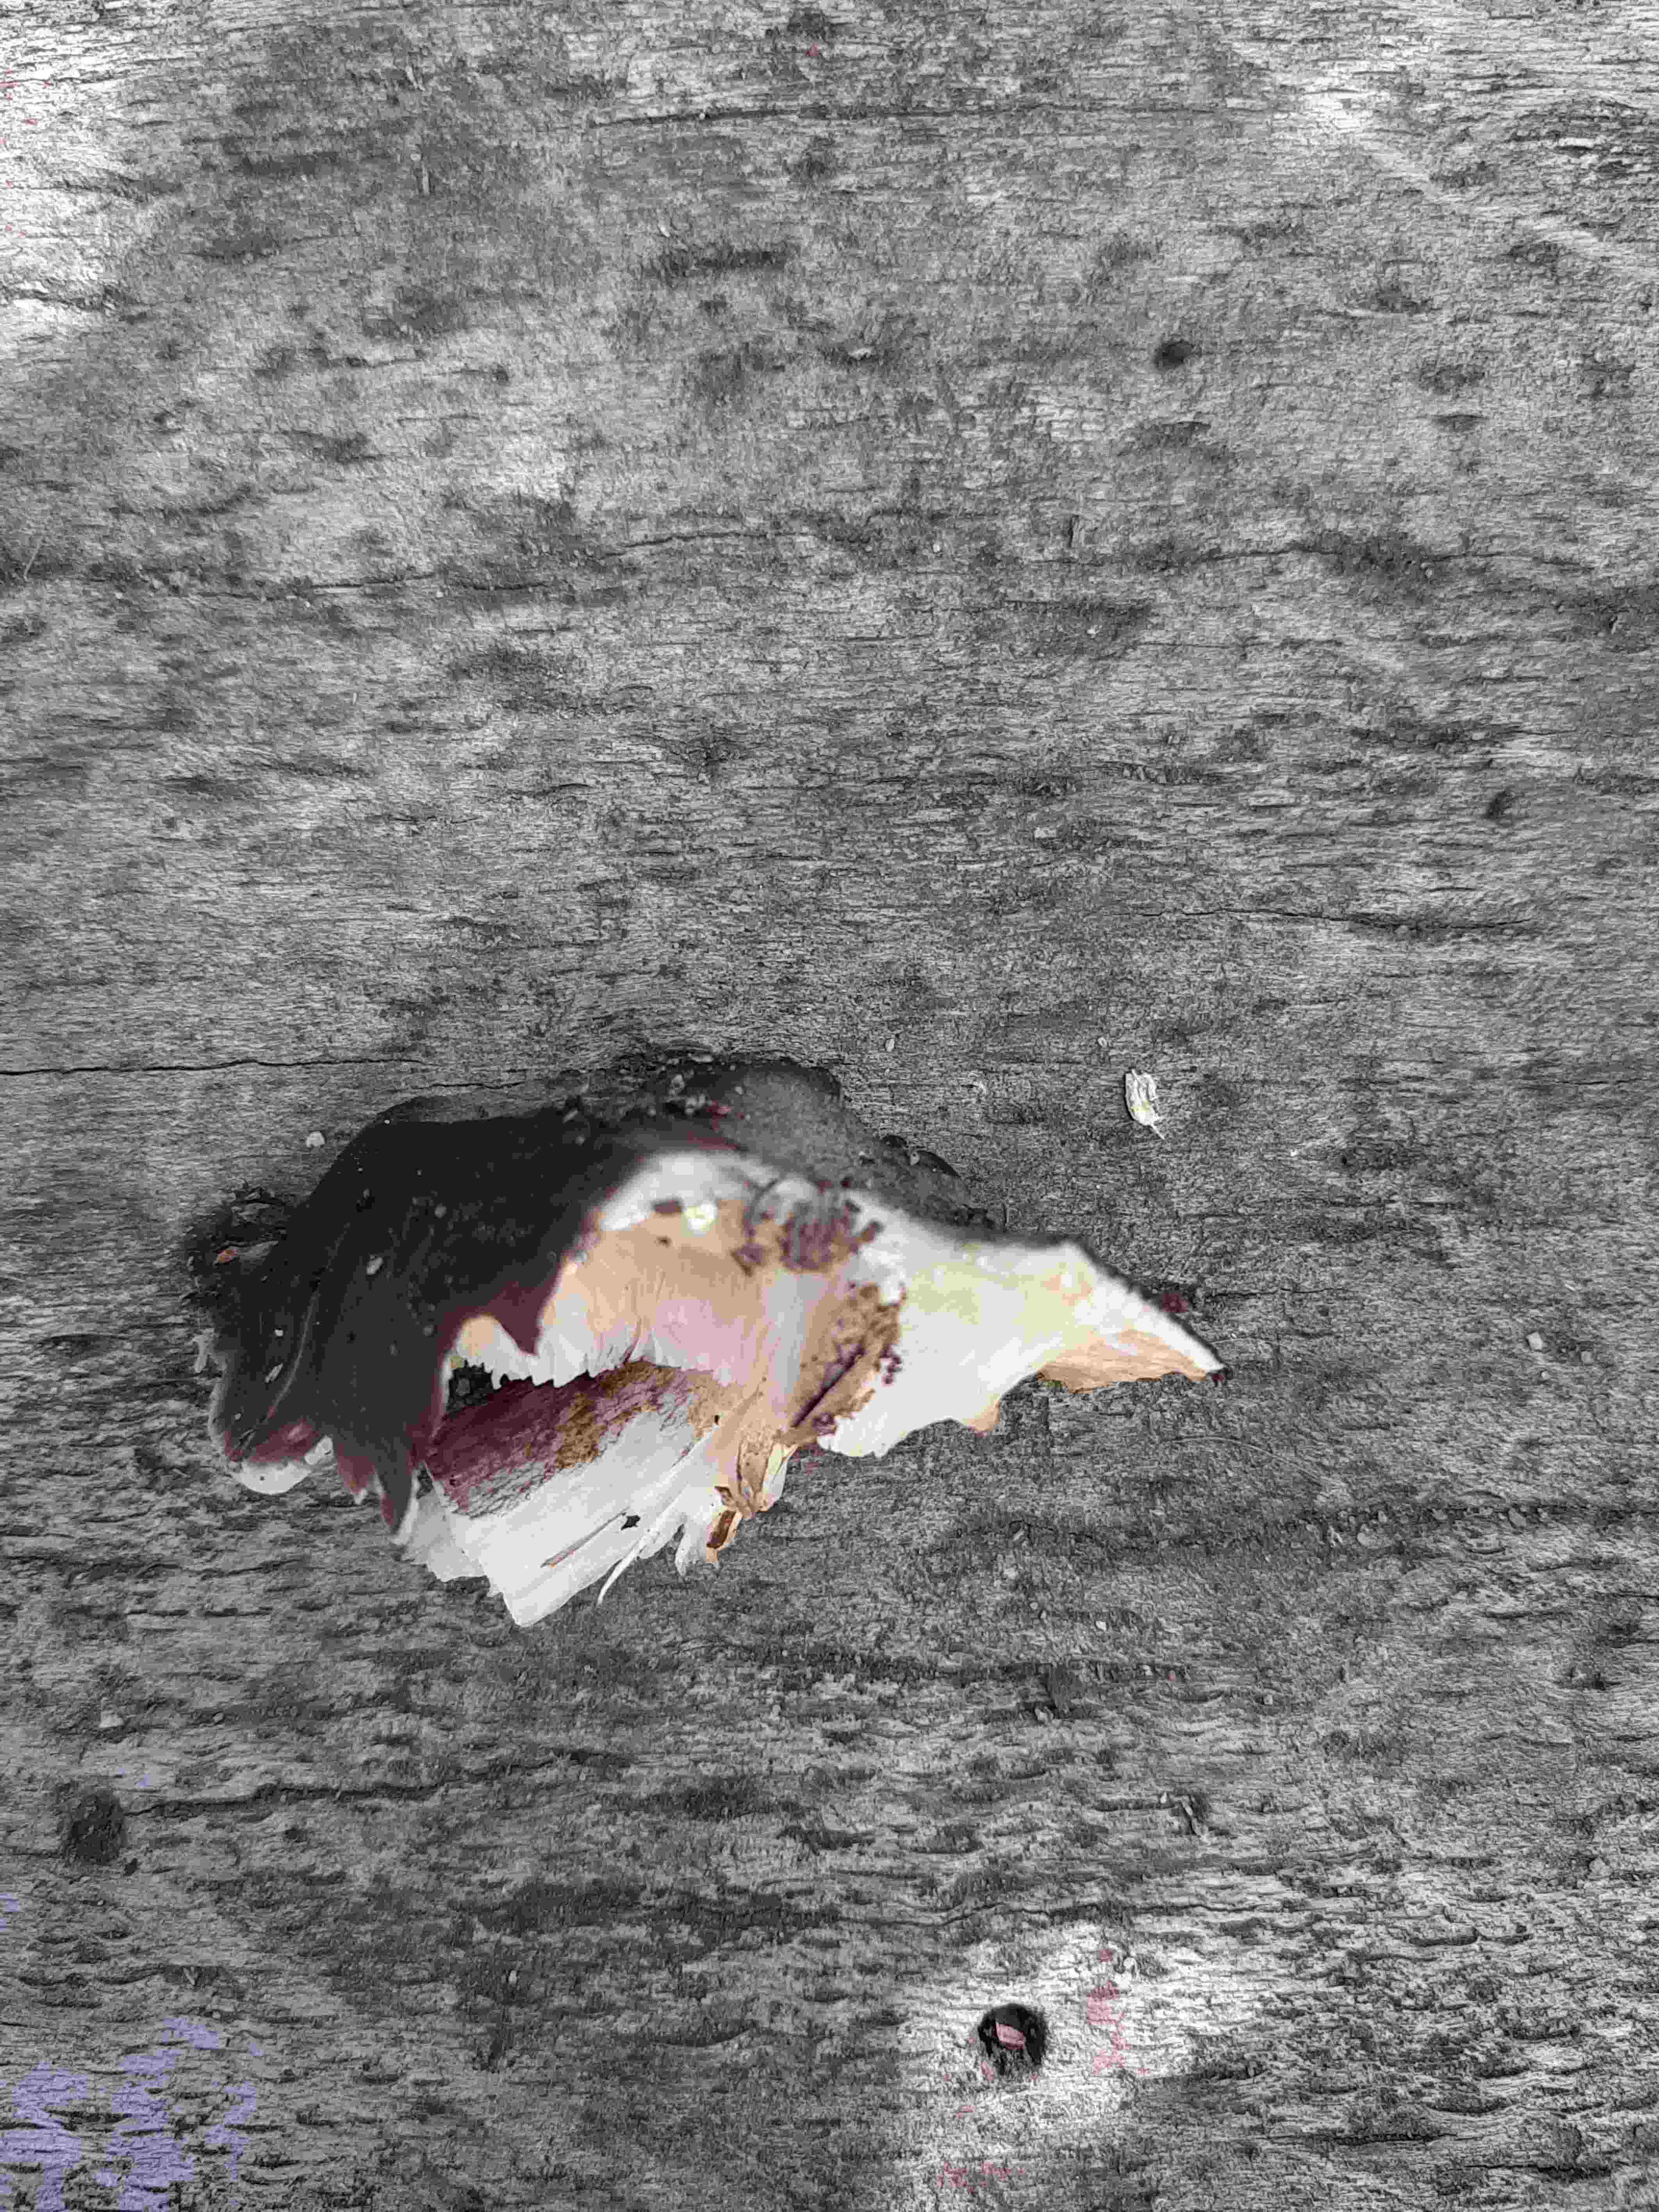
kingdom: Fungi
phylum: Basidiomycota
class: Agaricomycetes
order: Agaricales
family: Pluteaceae
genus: Pluteus
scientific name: Pluteus cervinus
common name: sodfarvet skærmhat
